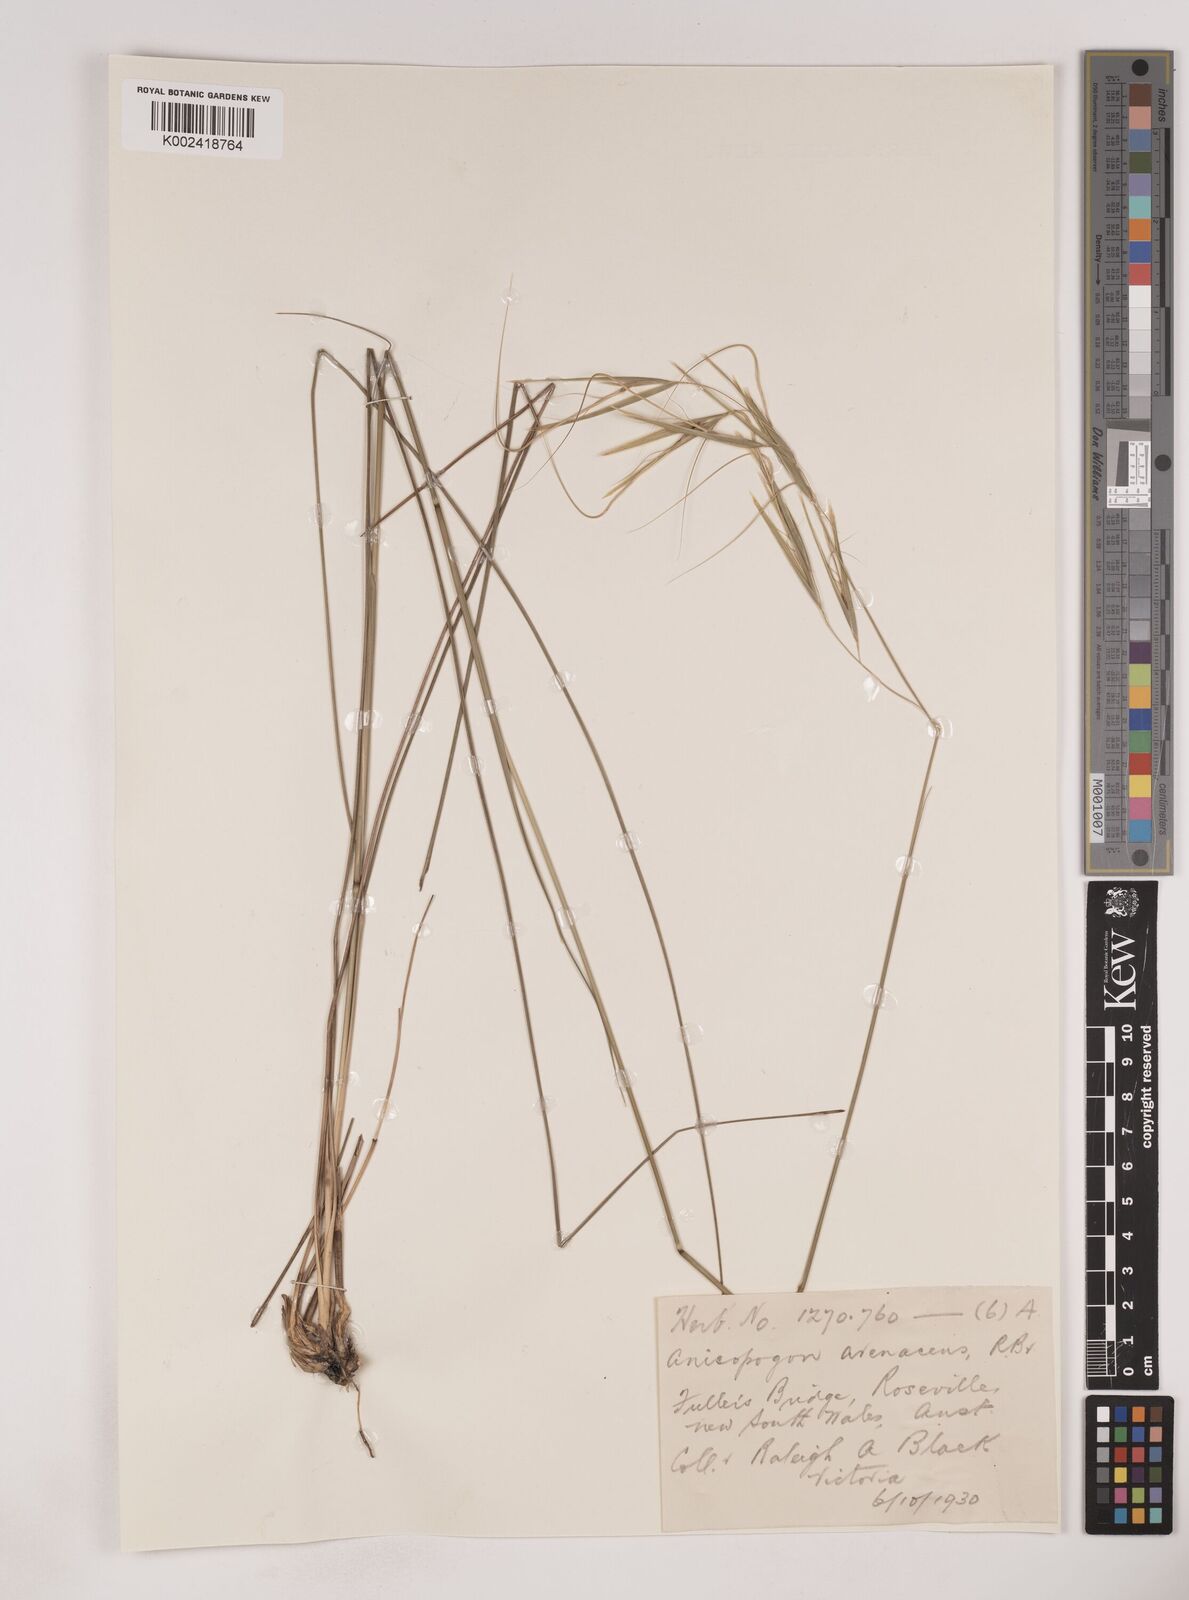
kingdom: Plantae
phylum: Tracheophyta
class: Liliopsida
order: Poales
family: Poaceae
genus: Anisopogon
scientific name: Anisopogon avenaceus
